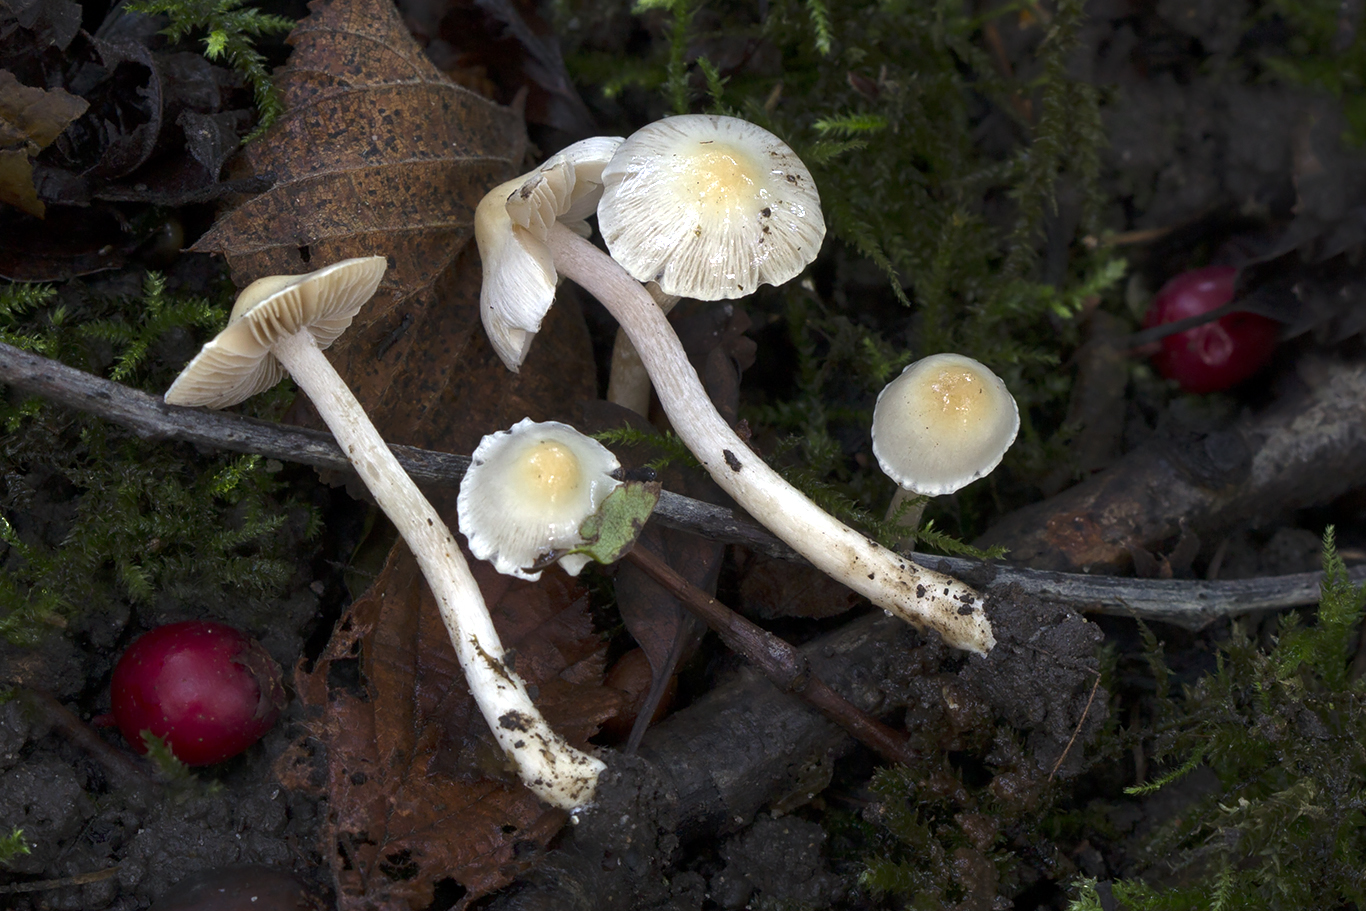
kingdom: Fungi
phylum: Basidiomycota
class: Agaricomycetes
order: Agaricales
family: Inocybaceae
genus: Inocybe
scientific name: Inocybe bellidiana
